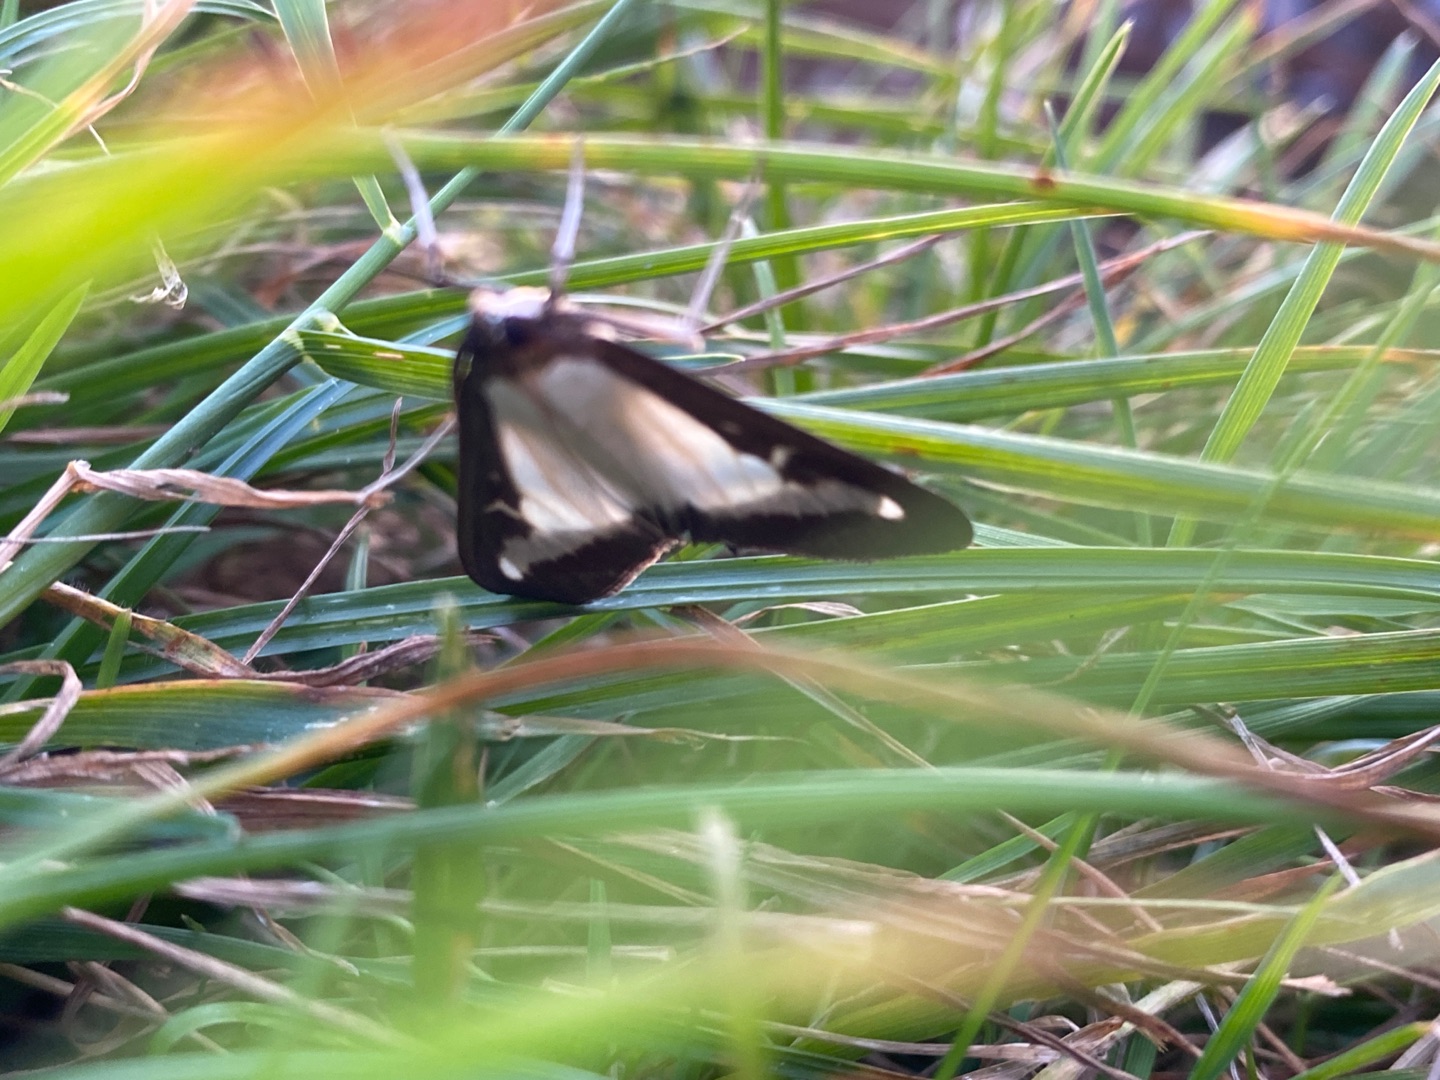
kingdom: Animalia
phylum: Arthropoda
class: Insecta
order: Lepidoptera
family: Crambidae
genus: Cydalima
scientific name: Cydalima perspectalis
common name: Buksbomhalvmøl
